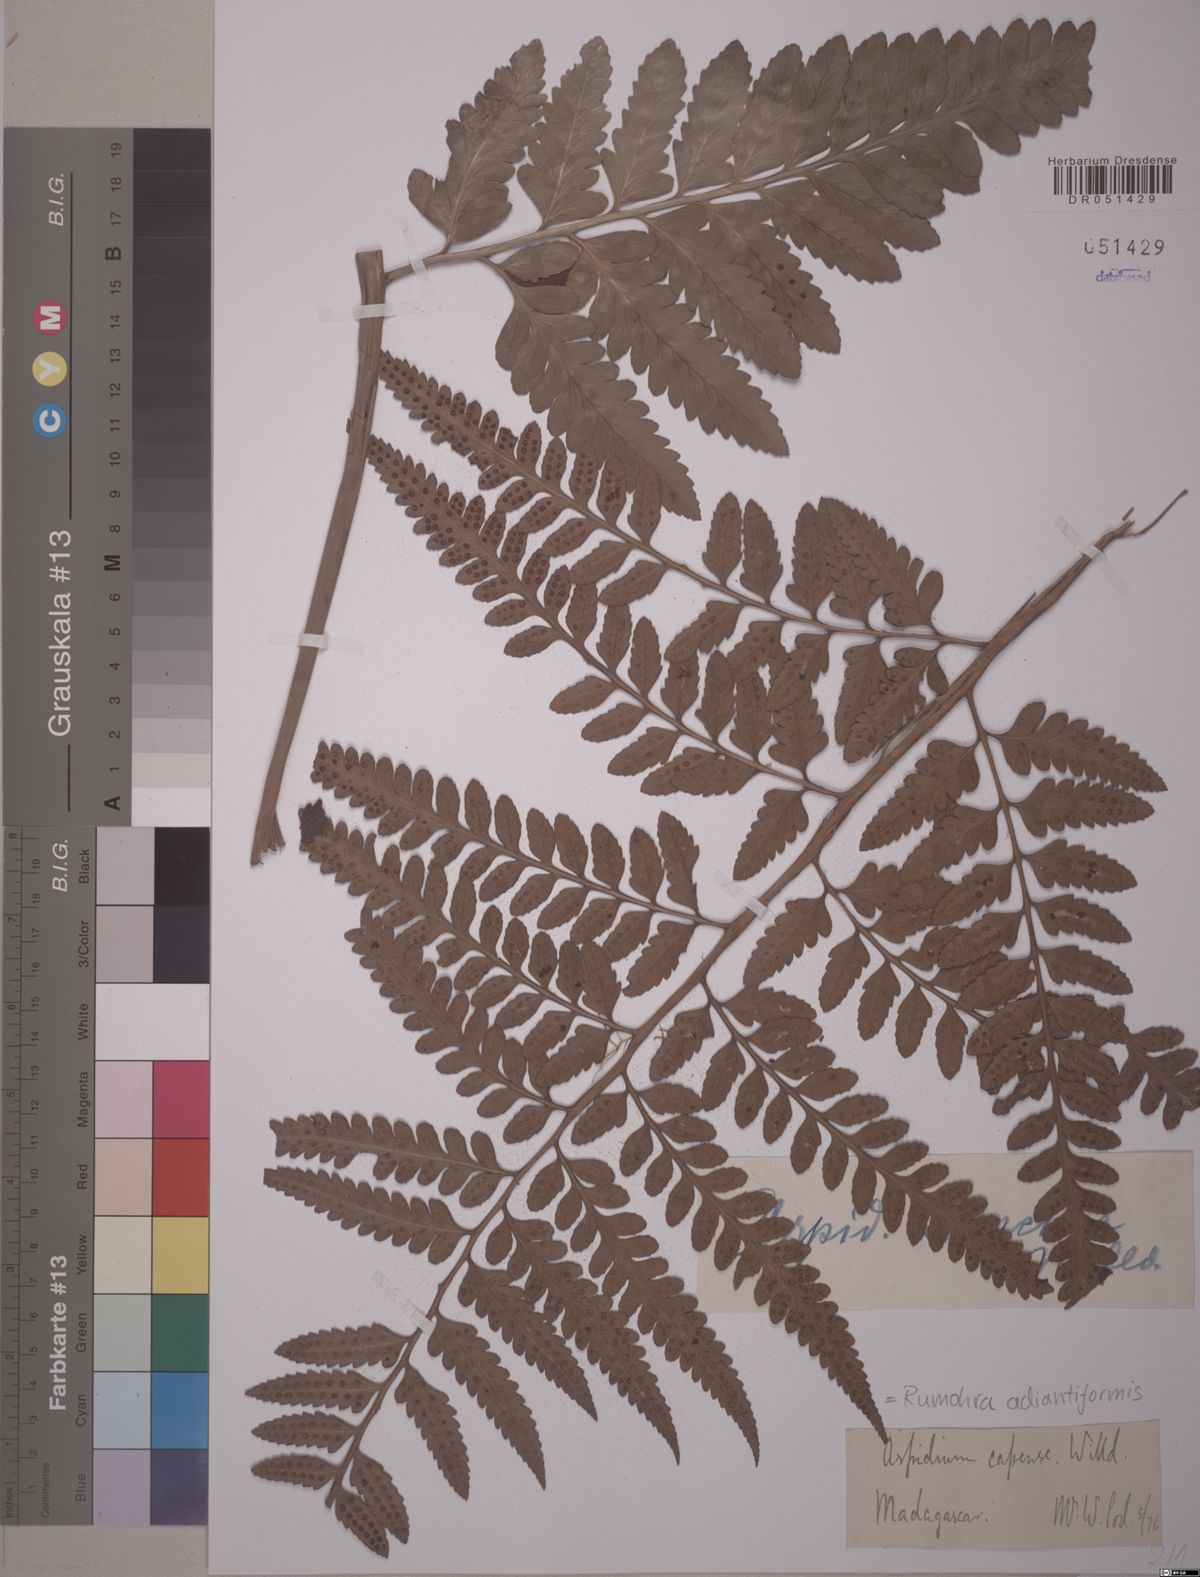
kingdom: Plantae
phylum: Tracheophyta
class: Polypodiopsida
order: Polypodiales
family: Dryopteridaceae
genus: Rumohra
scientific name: Rumohra adiantiformis
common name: Leather fern
